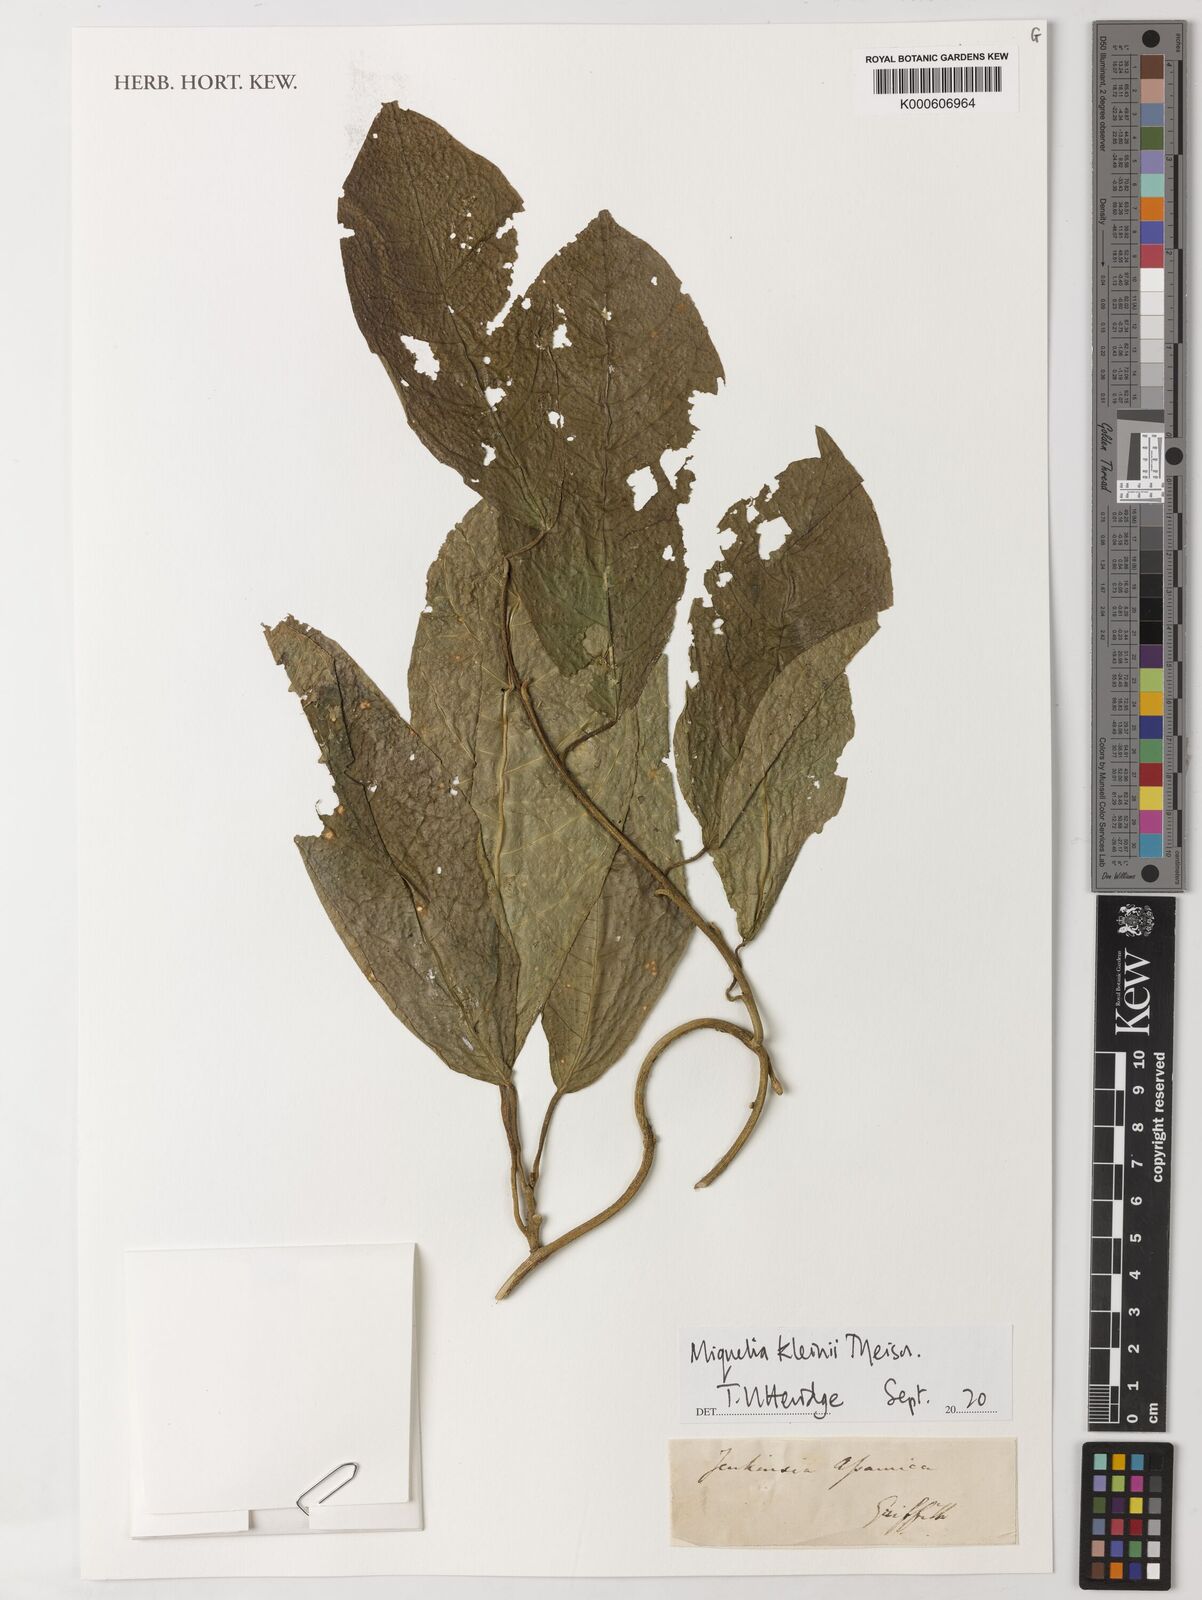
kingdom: Plantae
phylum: Tracheophyta
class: Magnoliopsida
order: Icacinales
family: Icacinaceae
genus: Miquelia
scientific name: Miquelia kleinii
